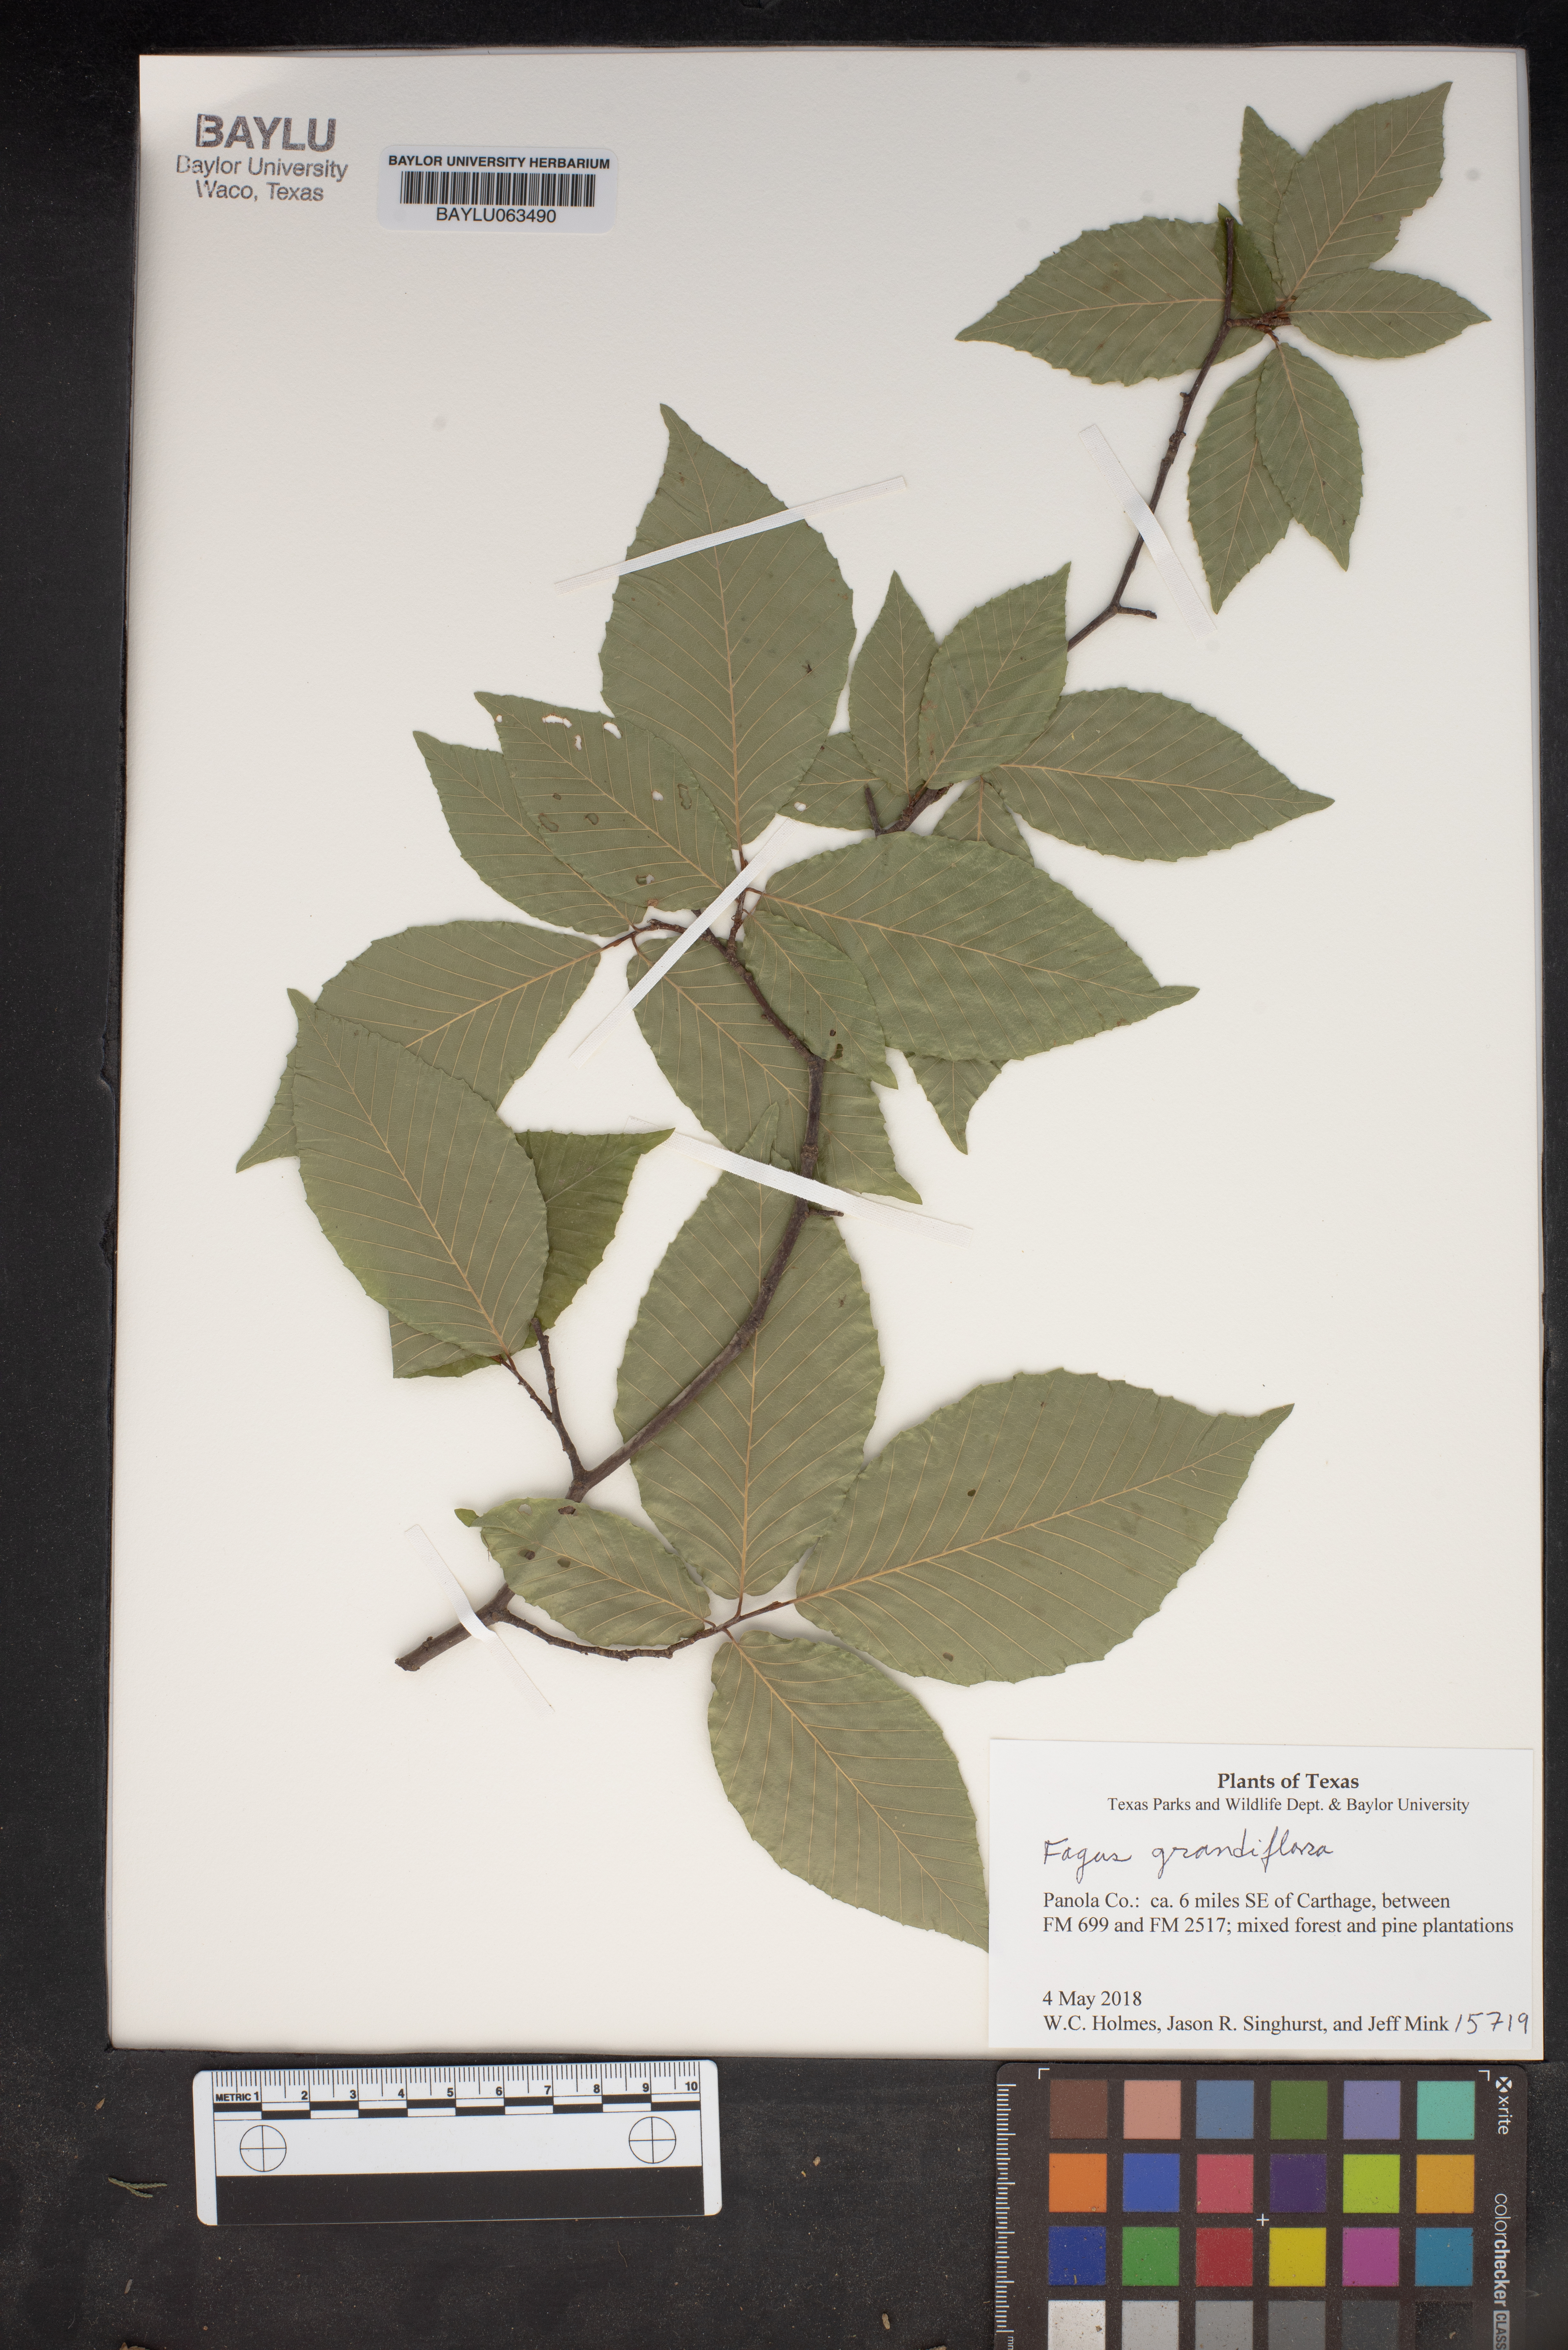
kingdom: Plantae
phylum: Tracheophyta
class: Magnoliopsida
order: Fagales
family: Fagaceae
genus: Fagus
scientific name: Fagus grandifolia
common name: American beech
